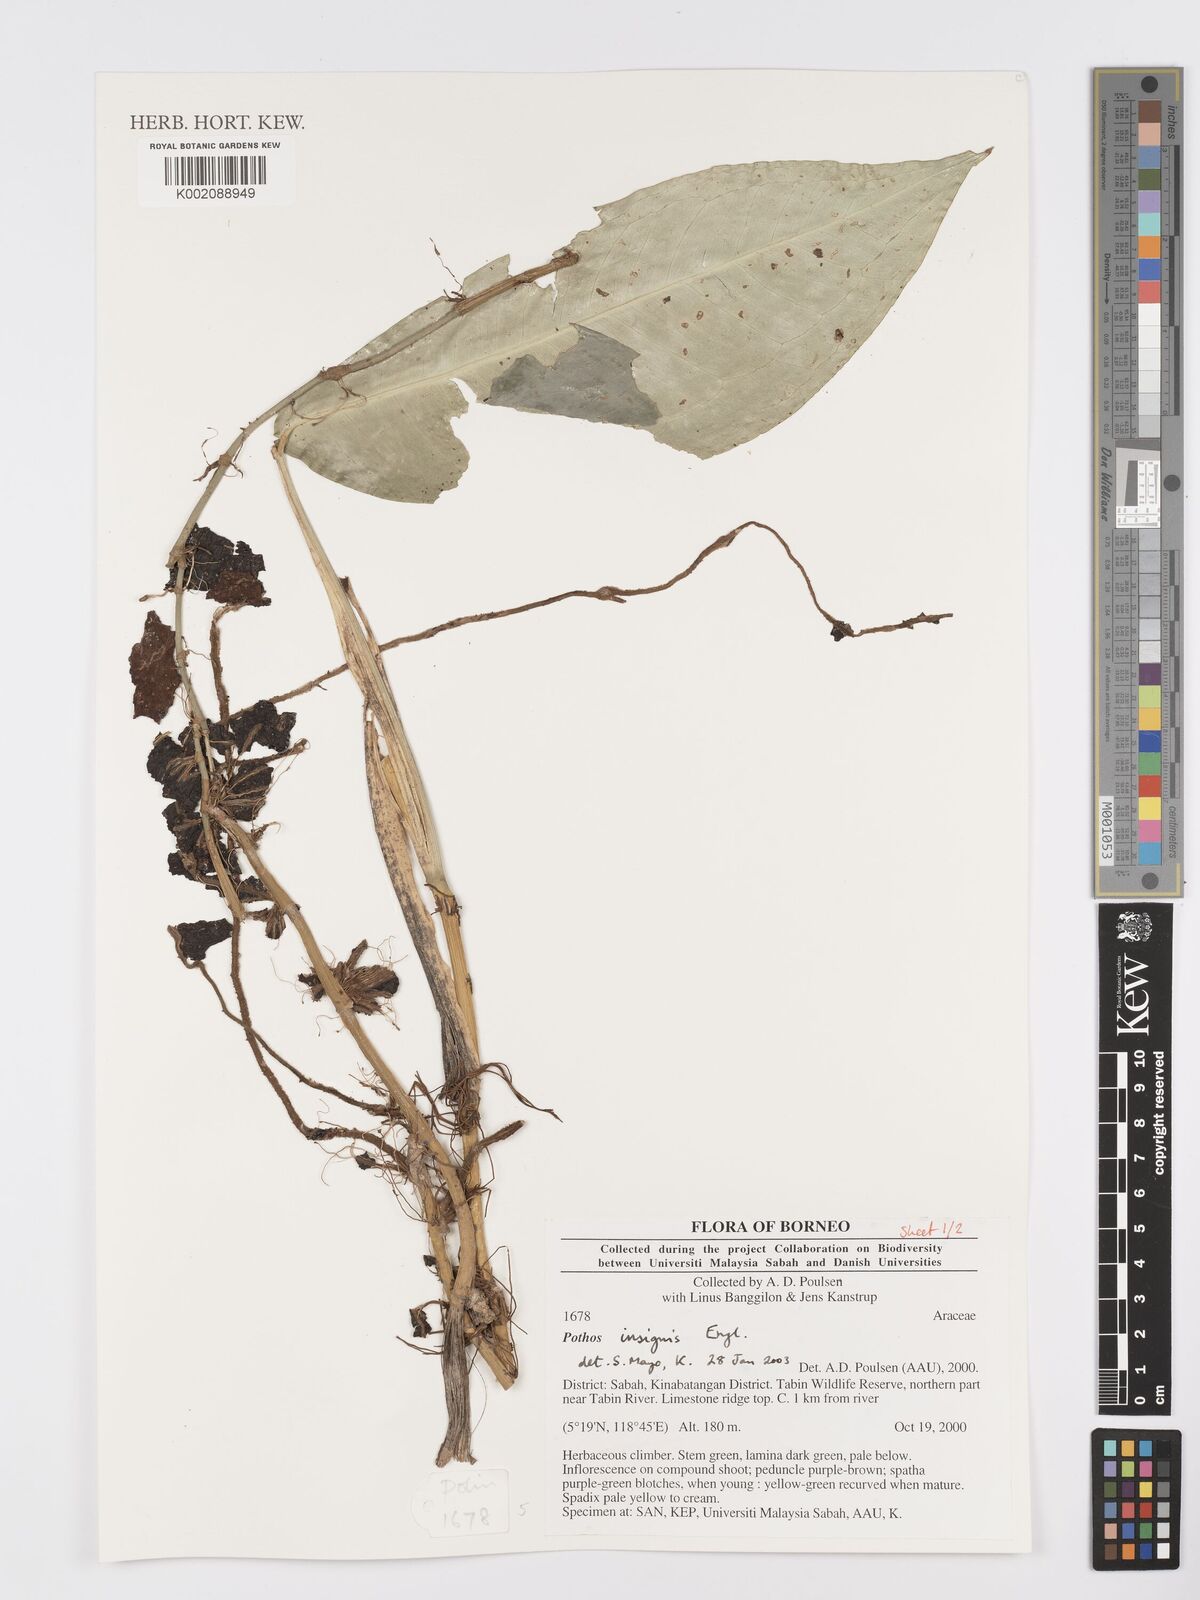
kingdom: Plantae
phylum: Tracheophyta
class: Liliopsida
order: Alismatales
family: Araceae
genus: Pothos
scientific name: Pothos insignis
